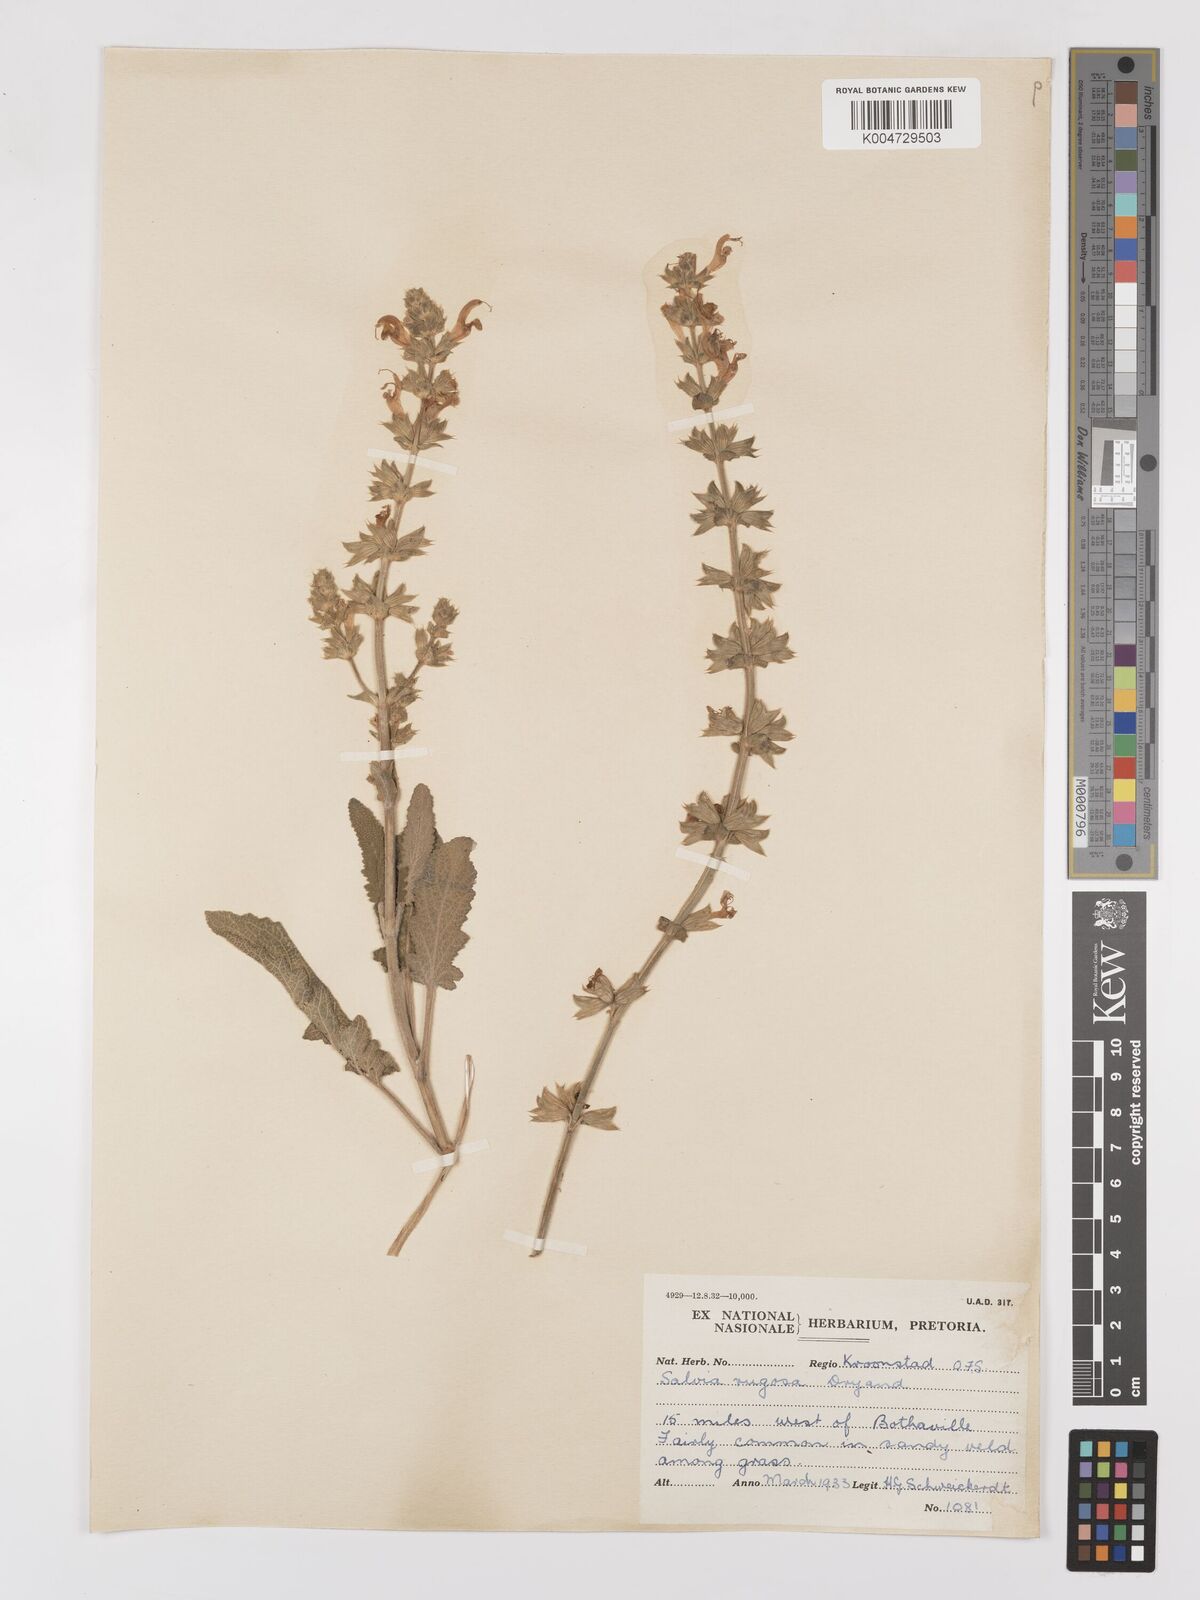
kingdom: Plantae
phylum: Tracheophyta
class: Magnoliopsida
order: Lamiales
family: Lamiaceae
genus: Salvia
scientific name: Salvia
